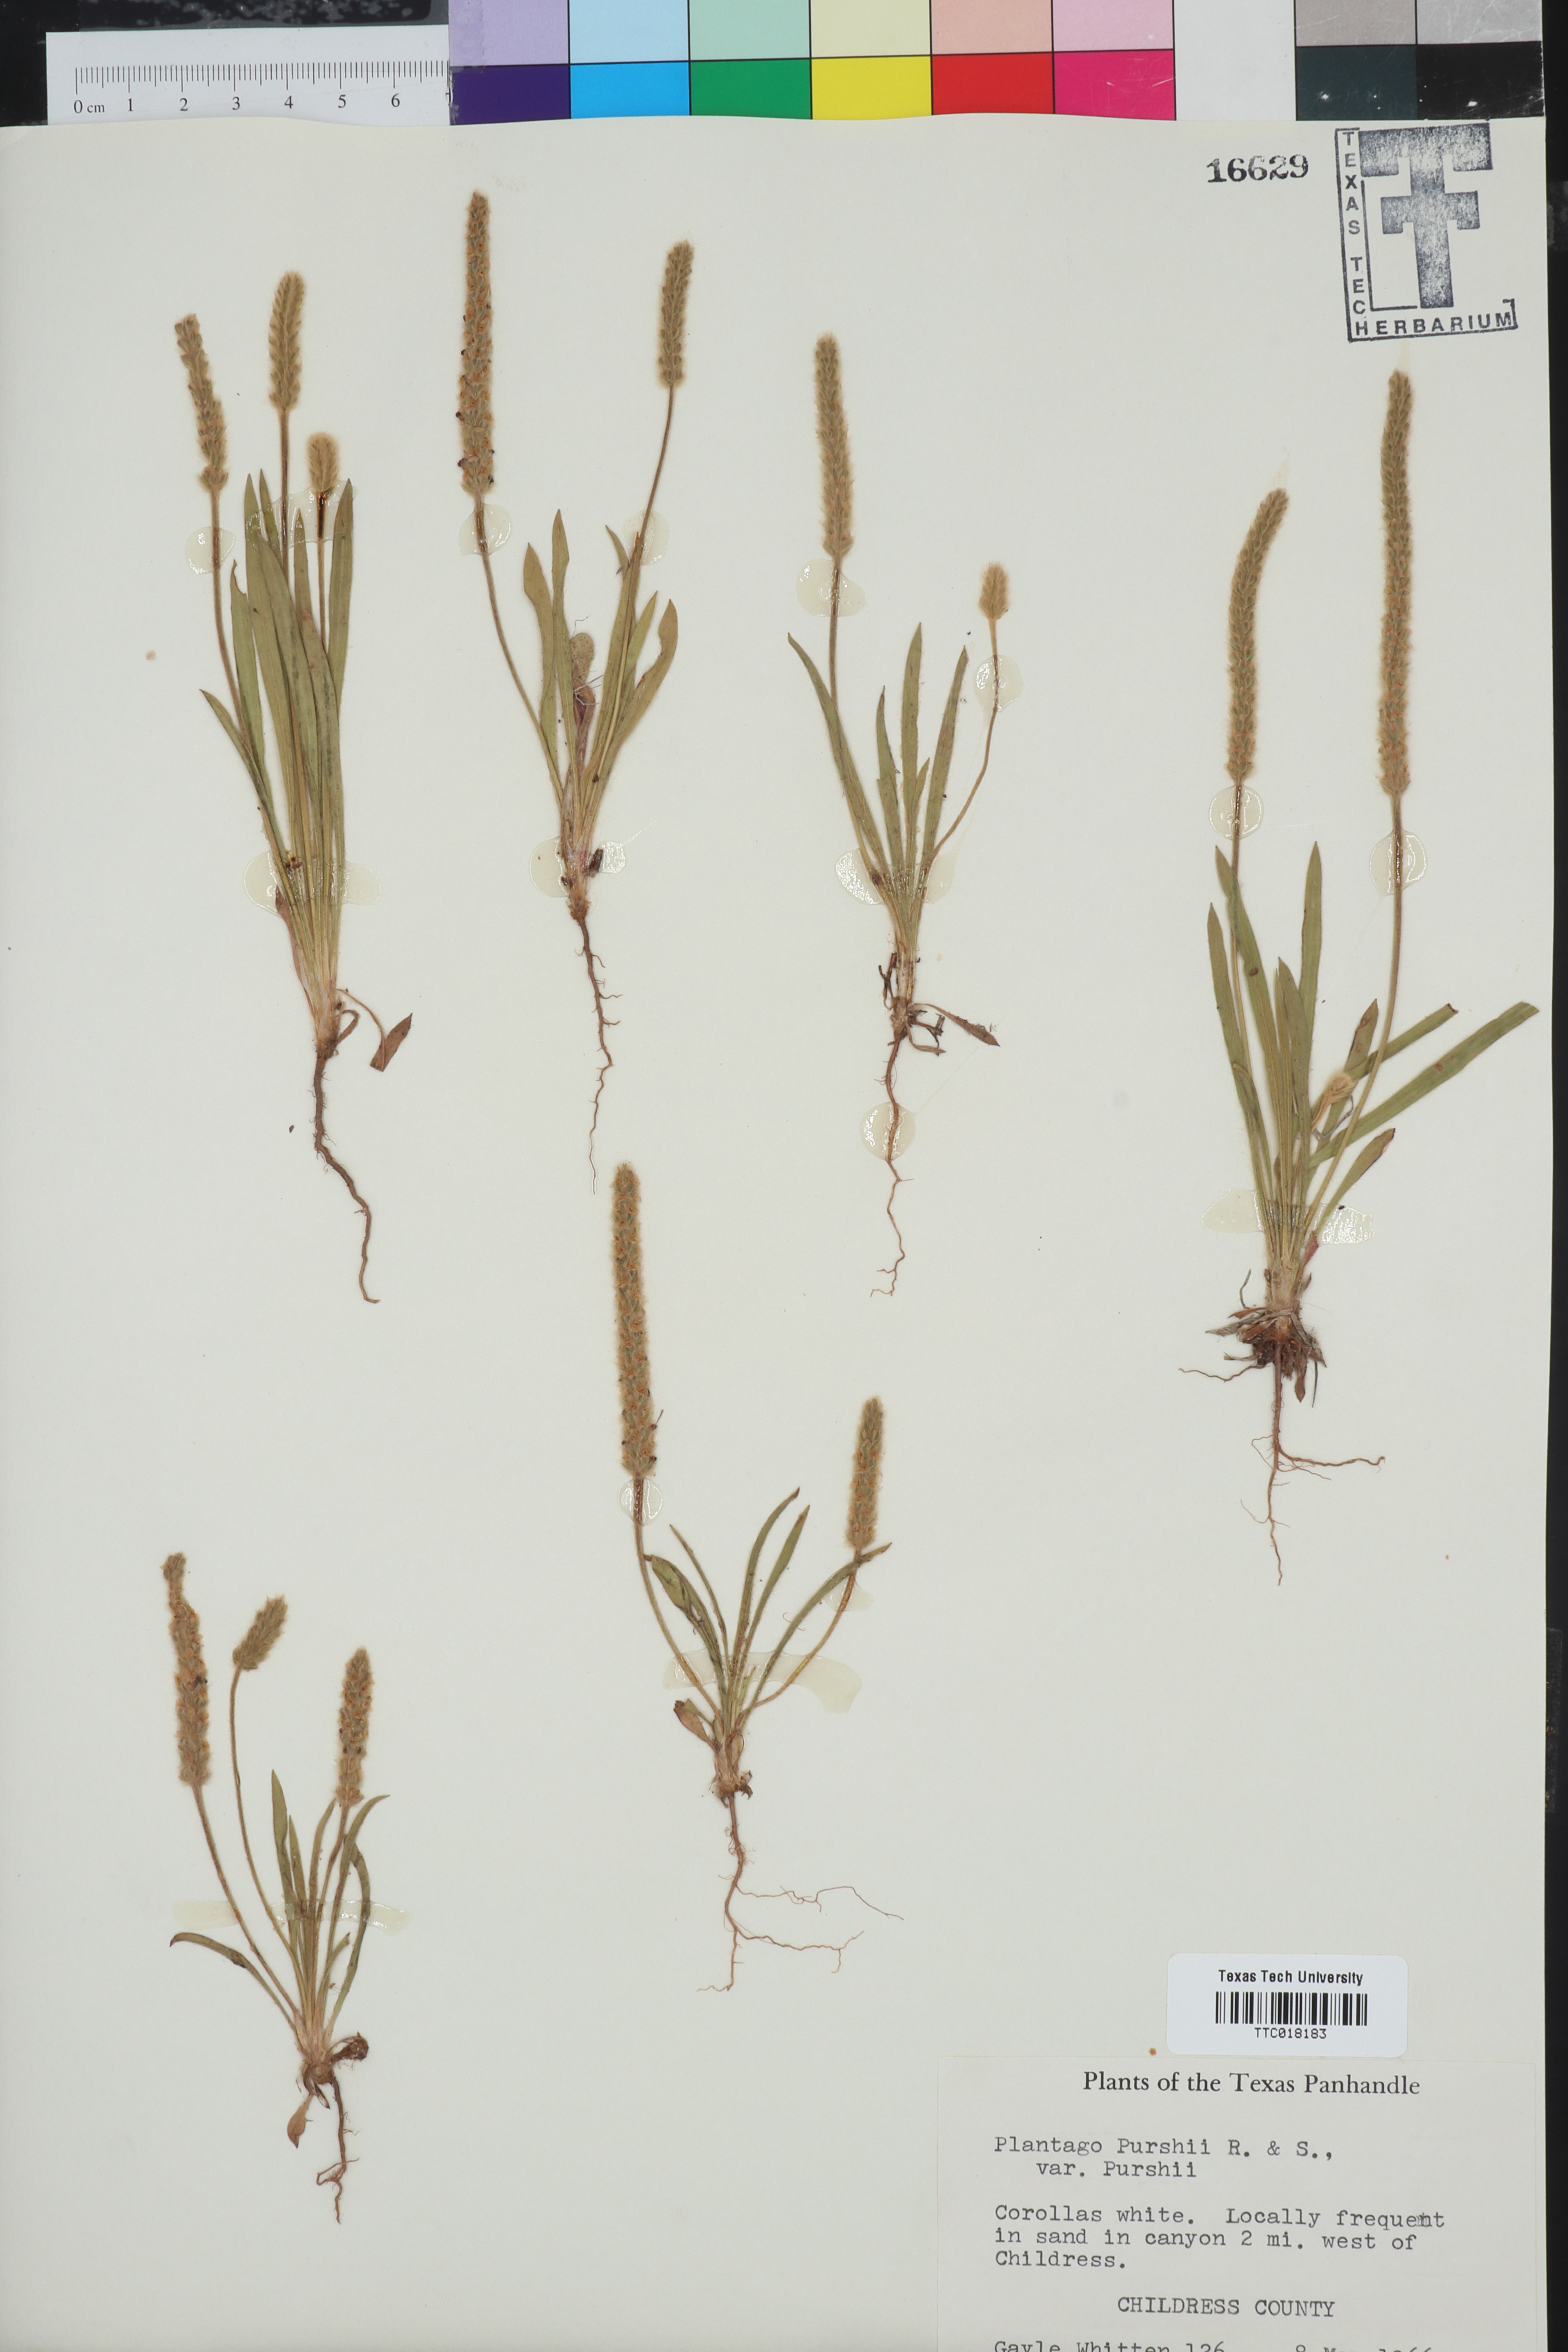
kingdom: Plantae
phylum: Tracheophyta
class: Magnoliopsida
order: Lamiales
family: Plantaginaceae
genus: Plantago
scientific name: Plantago patagonica
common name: Patagonia indian-wheat
